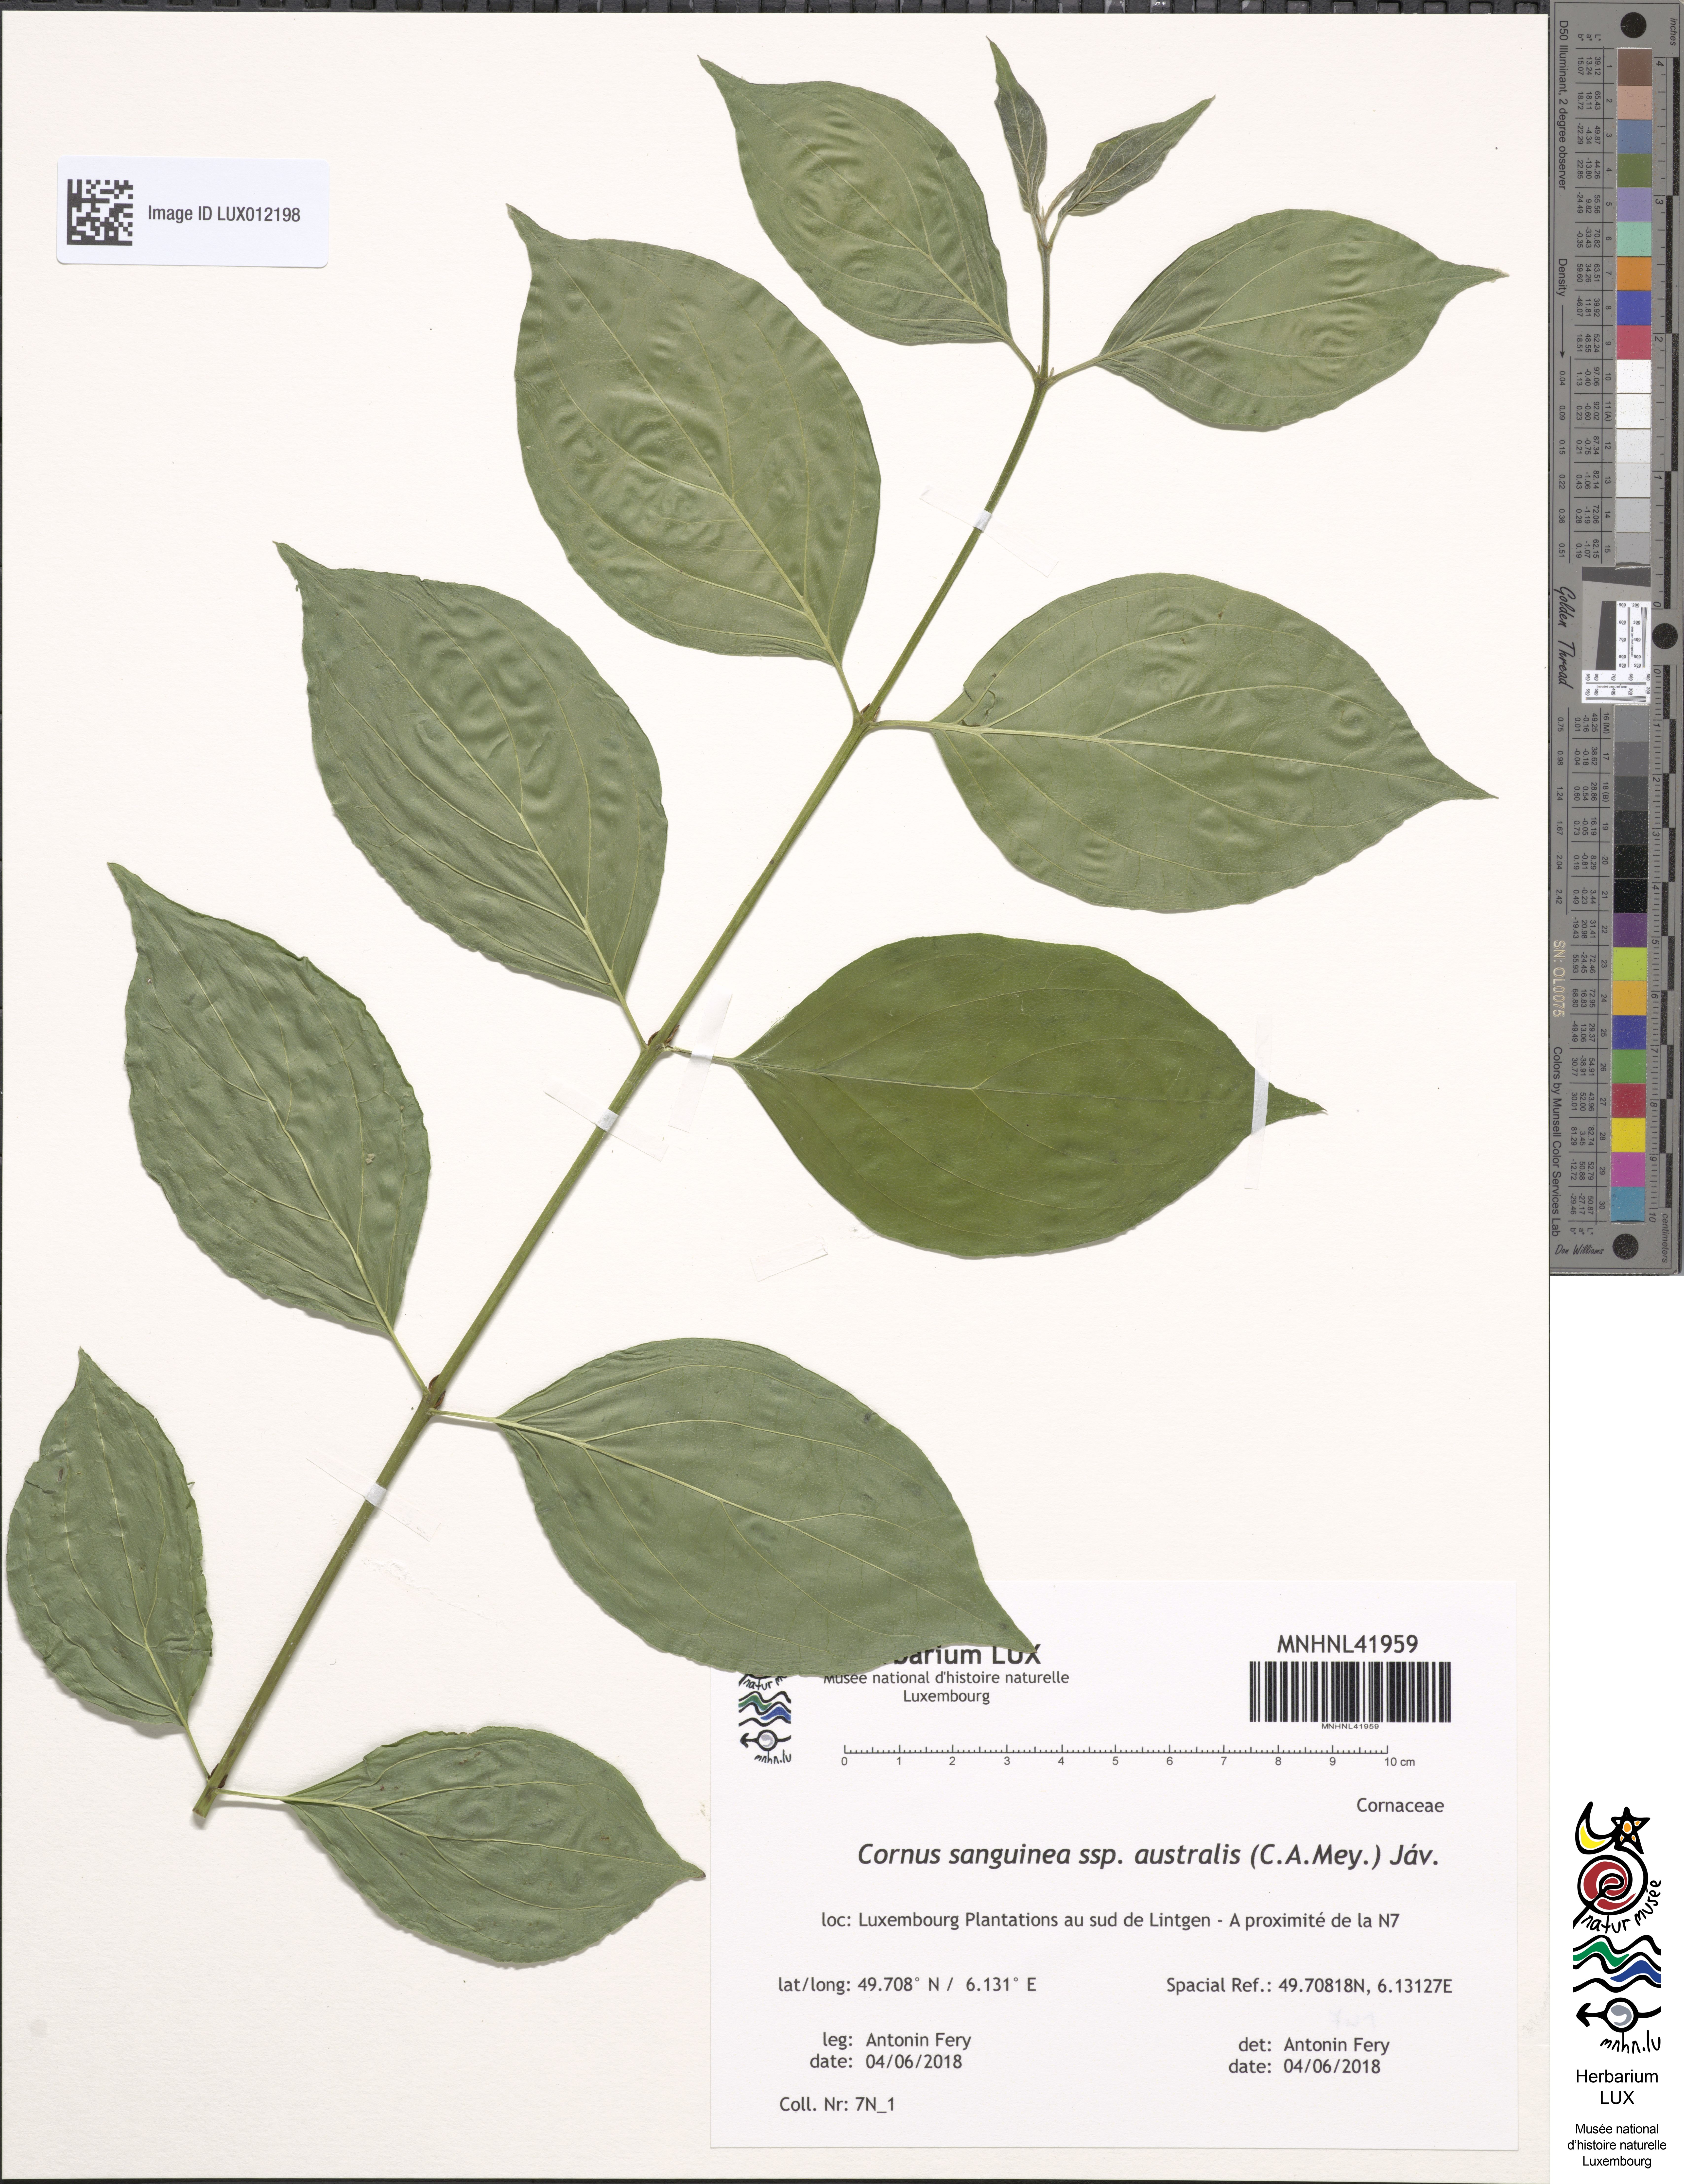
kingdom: Plantae
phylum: Tracheophyta
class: Magnoliopsida
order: Cornales
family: Cornaceae
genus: Cornus
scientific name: Cornus sanguinea
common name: Dogwood
